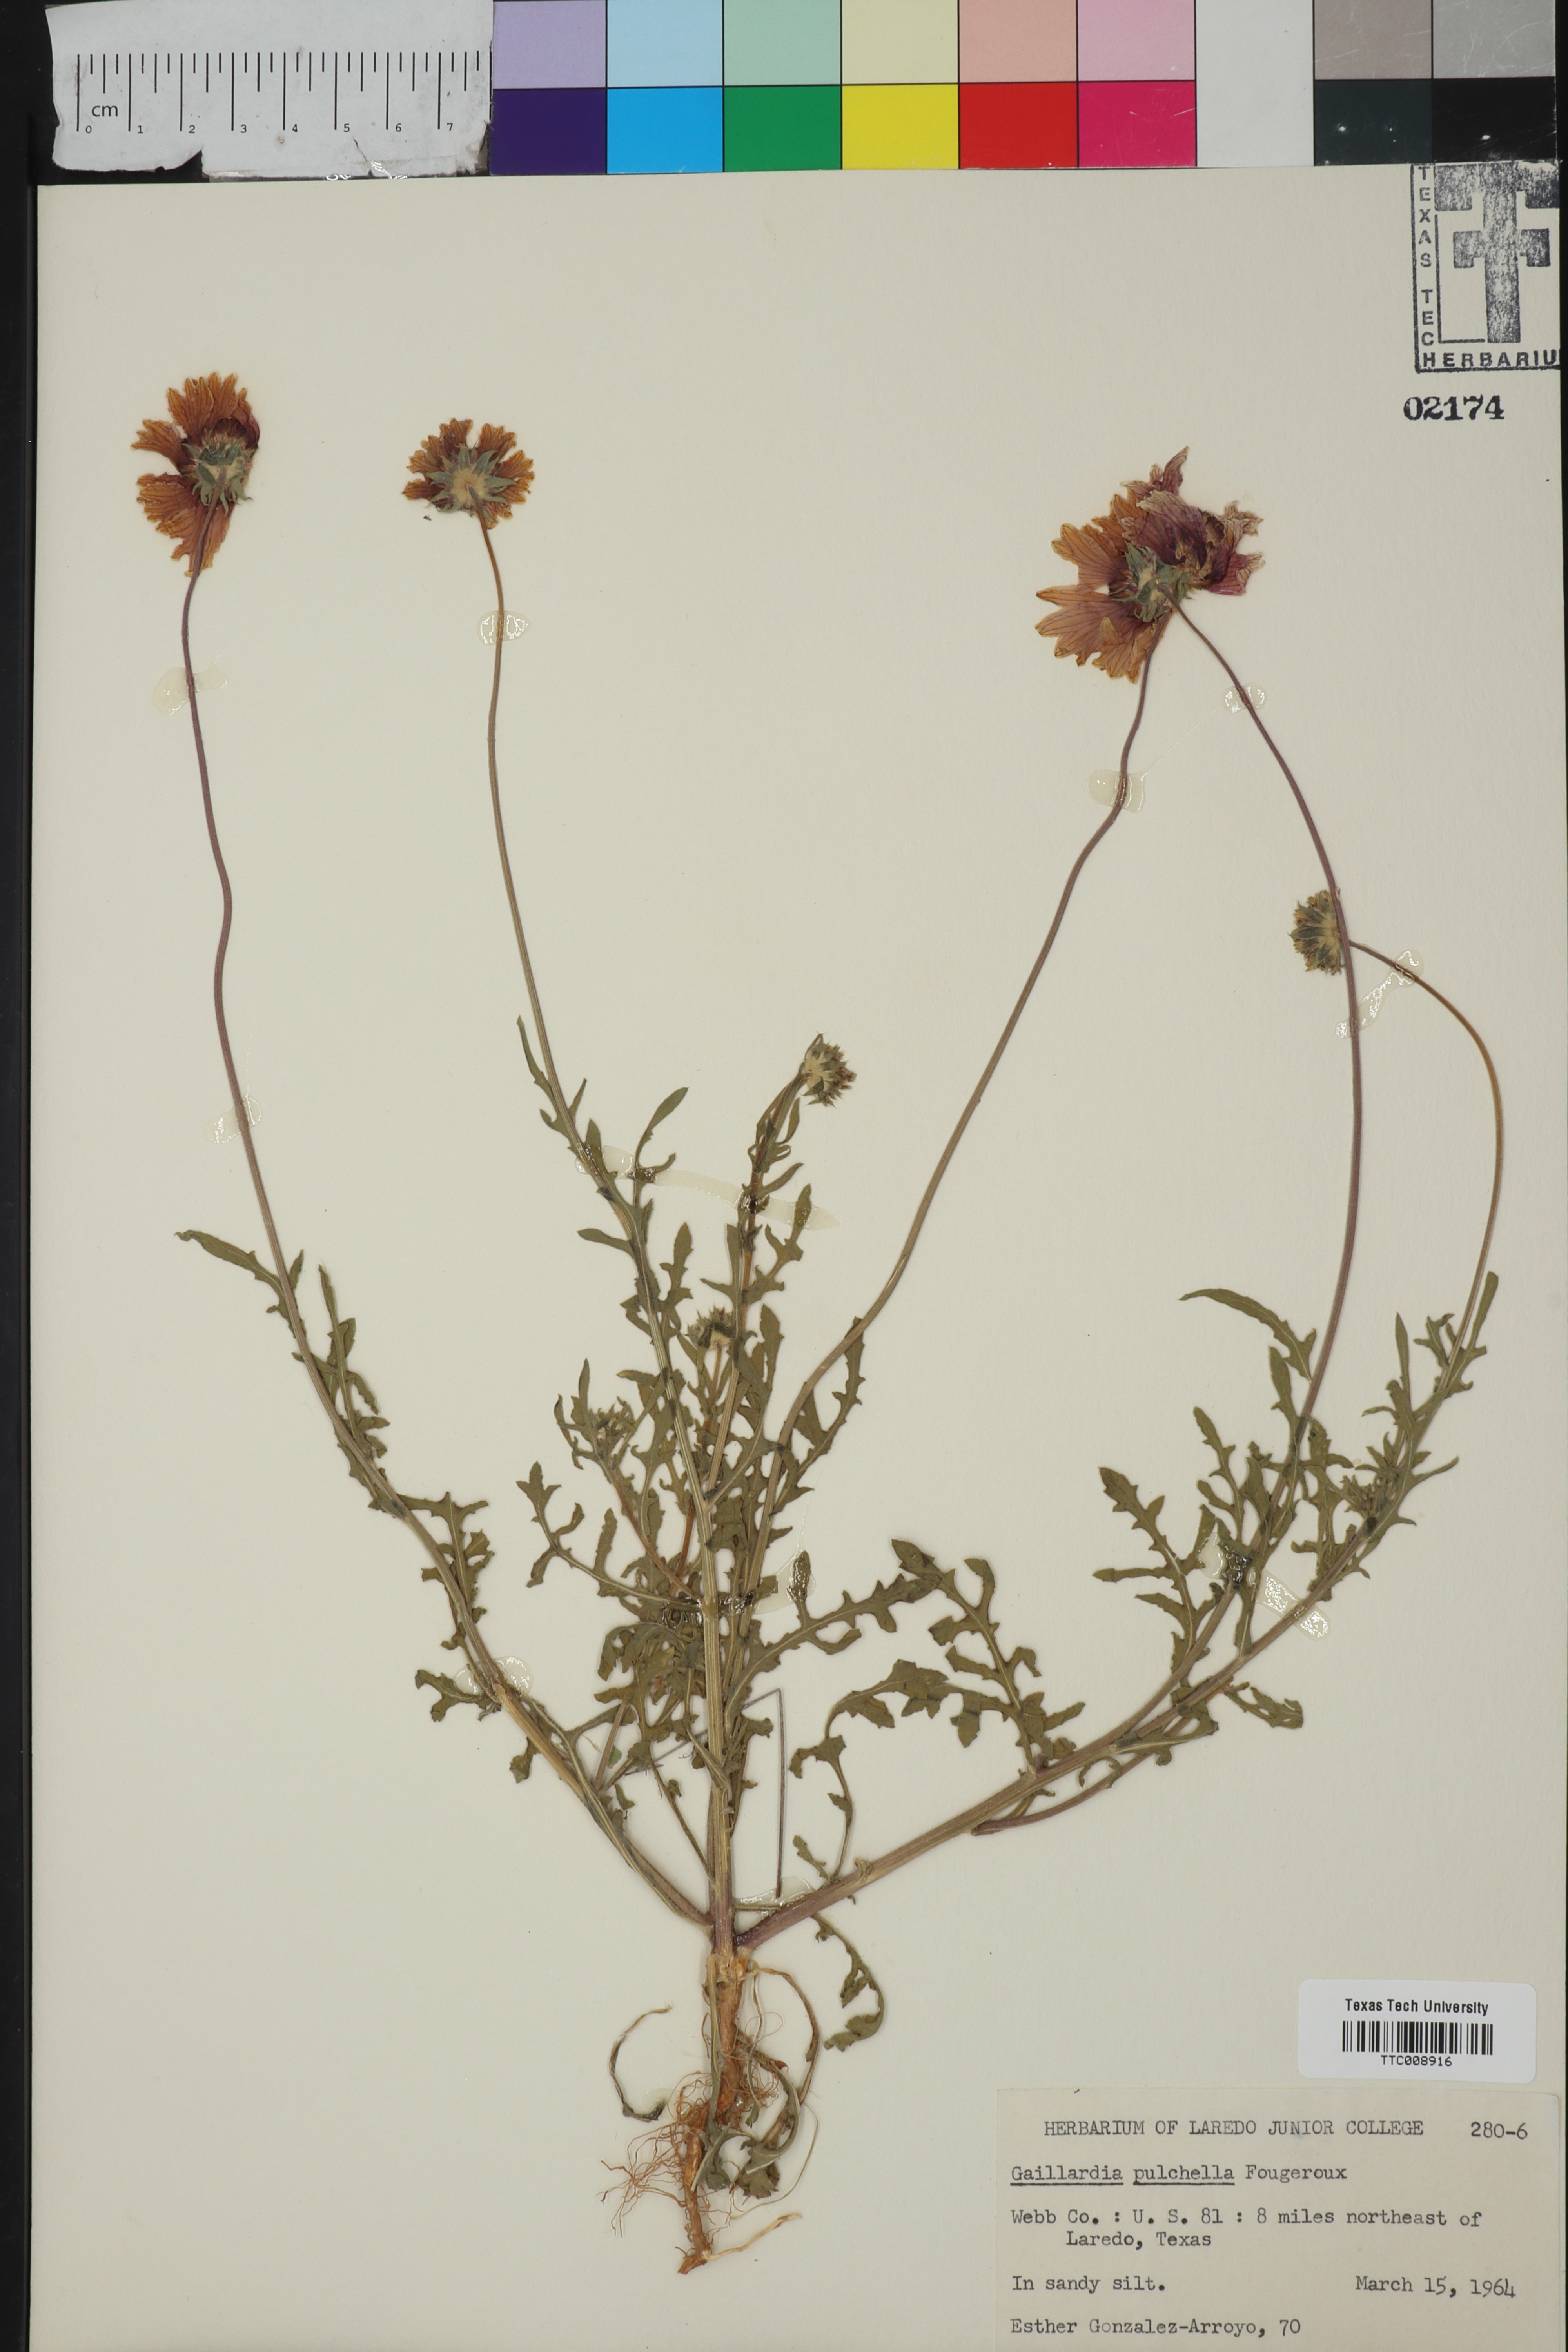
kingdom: Plantae
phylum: Tracheophyta
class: Magnoliopsida
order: Asterales
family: Asteraceae
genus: Gaillardia
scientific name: Gaillardia pulchella
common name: Firewheel
